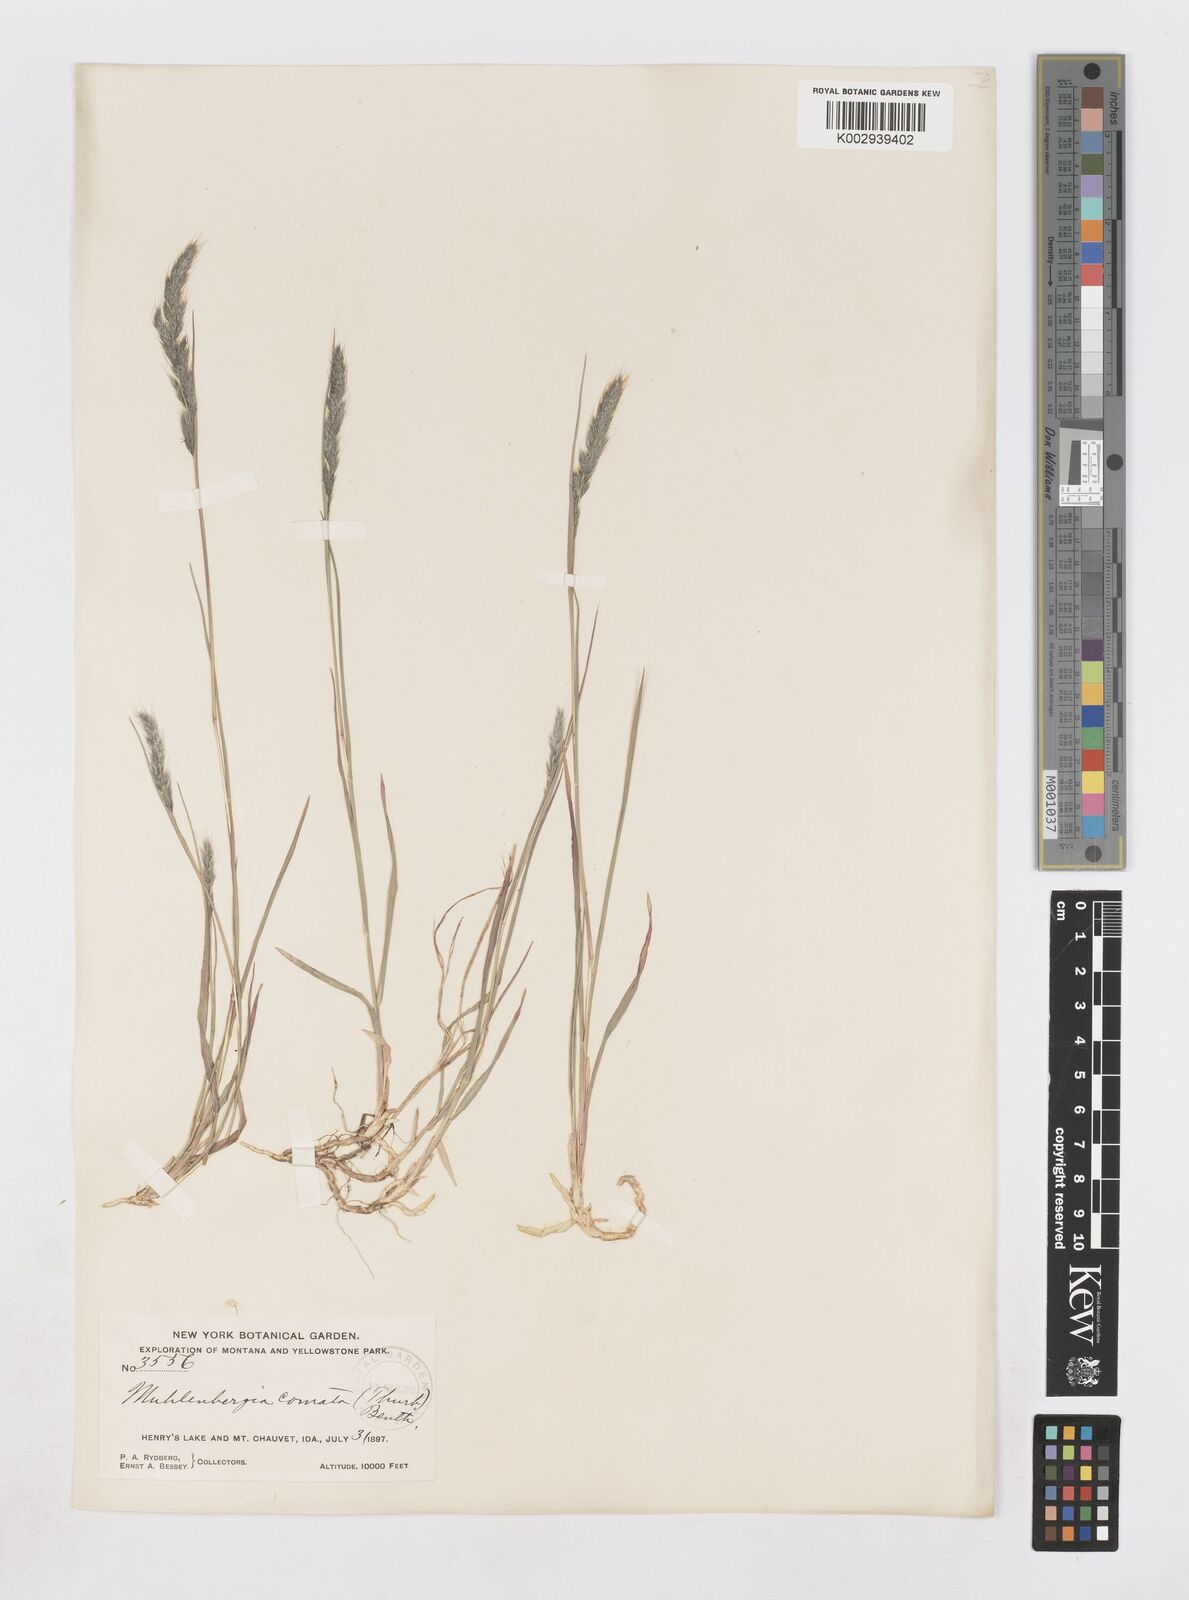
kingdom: Plantae
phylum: Tracheophyta
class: Liliopsida
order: Poales
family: Poaceae
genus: Muhlenbergia
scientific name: Muhlenbergia andina
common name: Foxtail muhly
